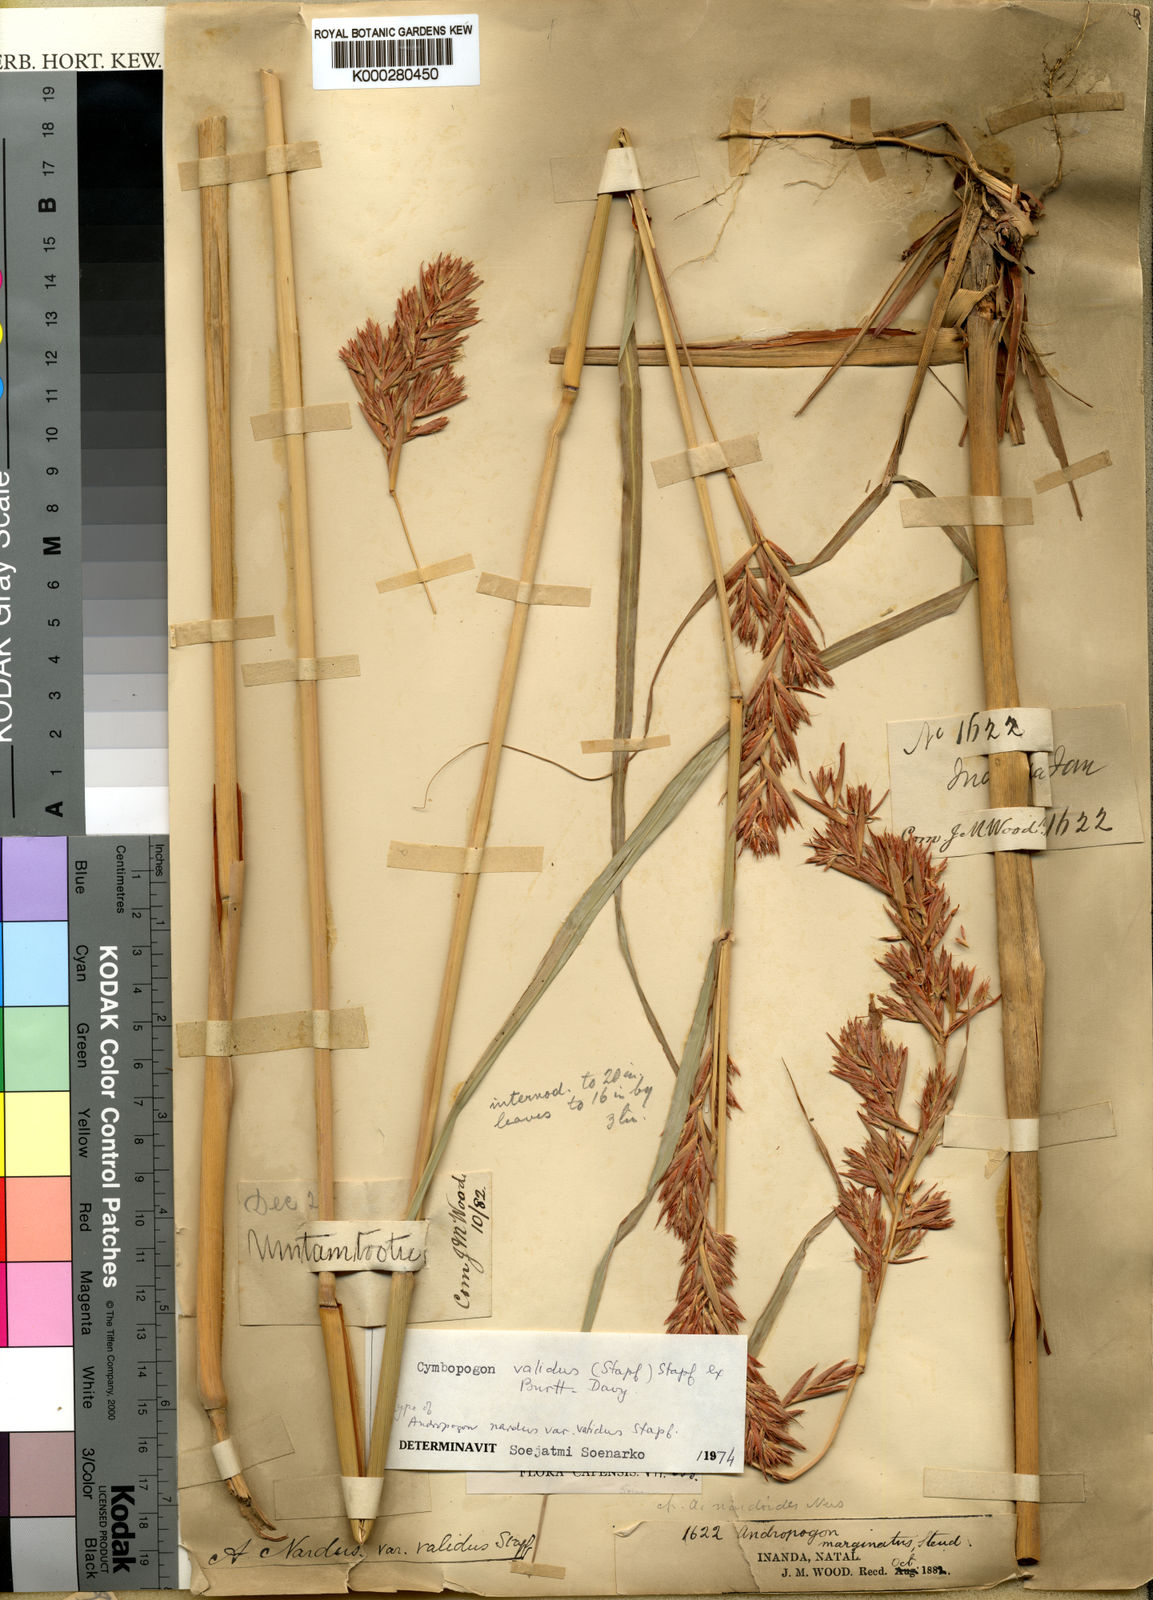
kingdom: Plantae
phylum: Tracheophyta
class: Liliopsida
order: Poales
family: Poaceae
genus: Cymbopogon
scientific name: Cymbopogon nardus
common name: Giant turpentine grass
